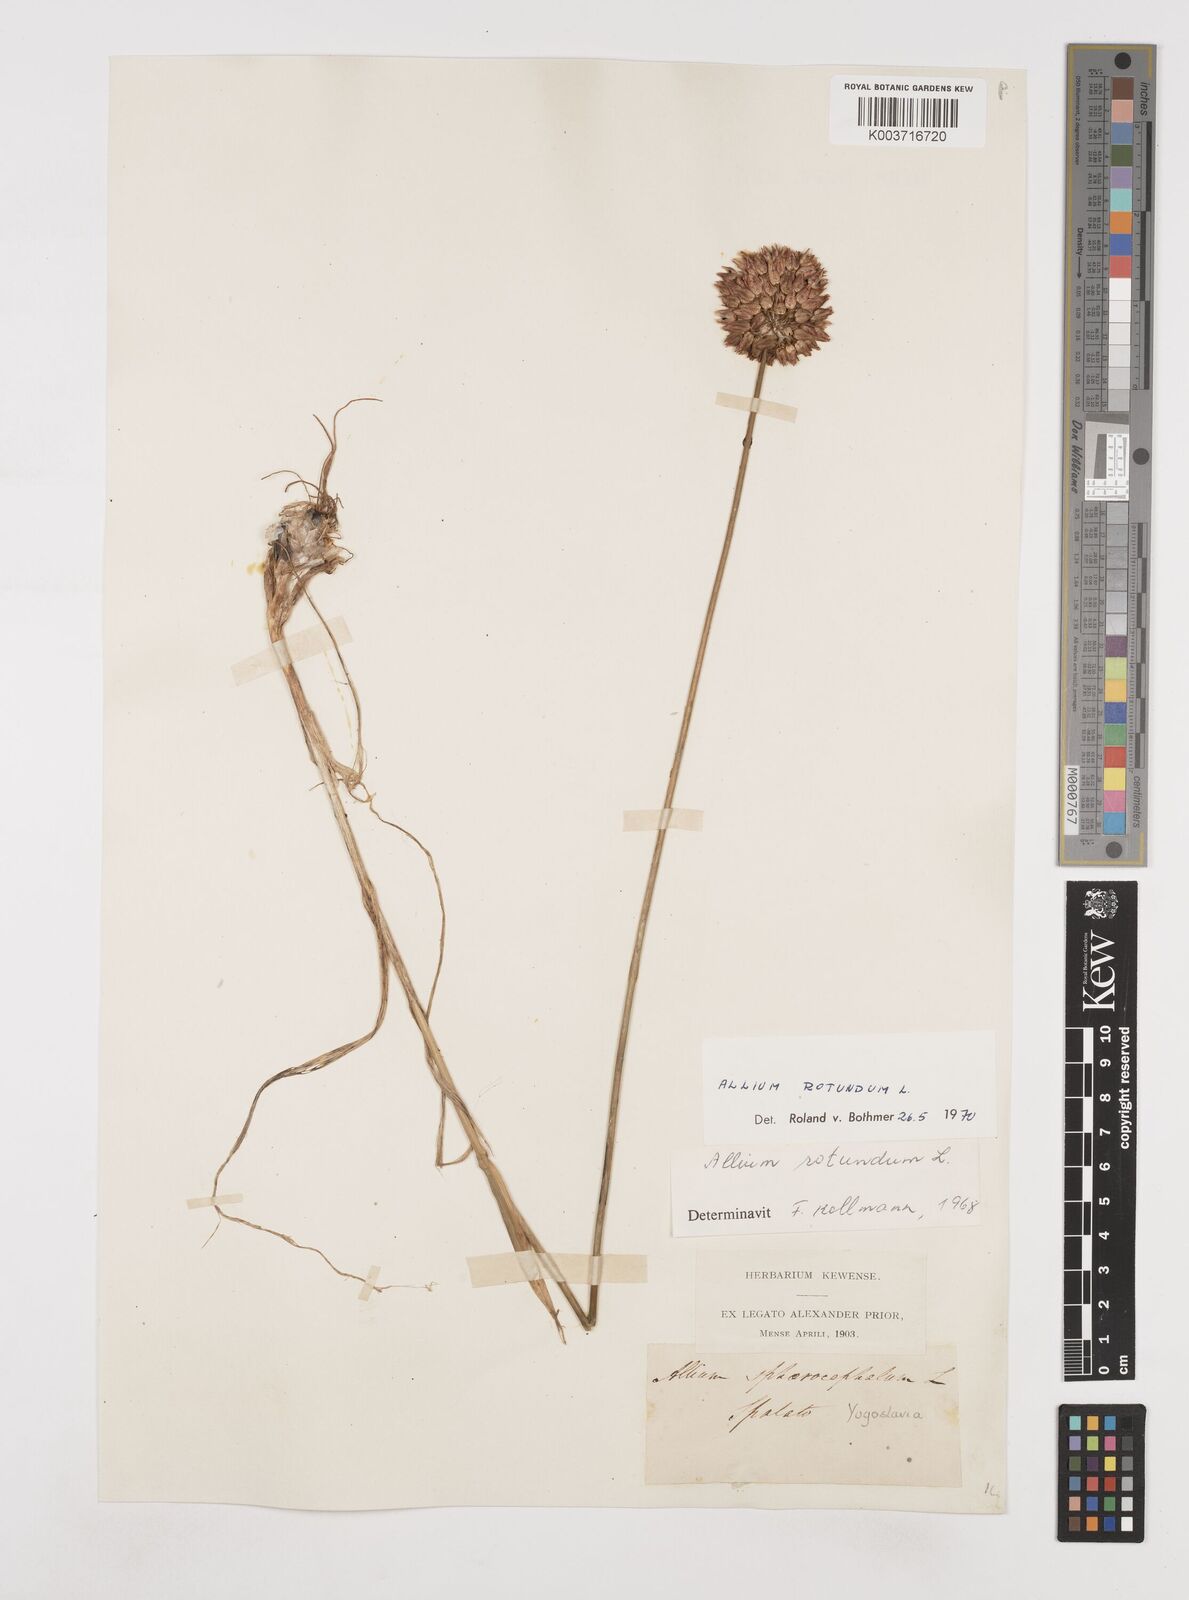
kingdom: Plantae
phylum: Tracheophyta
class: Liliopsida
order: Asparagales
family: Amaryllidaceae
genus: Allium
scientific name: Allium rotundum
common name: Sand leek
